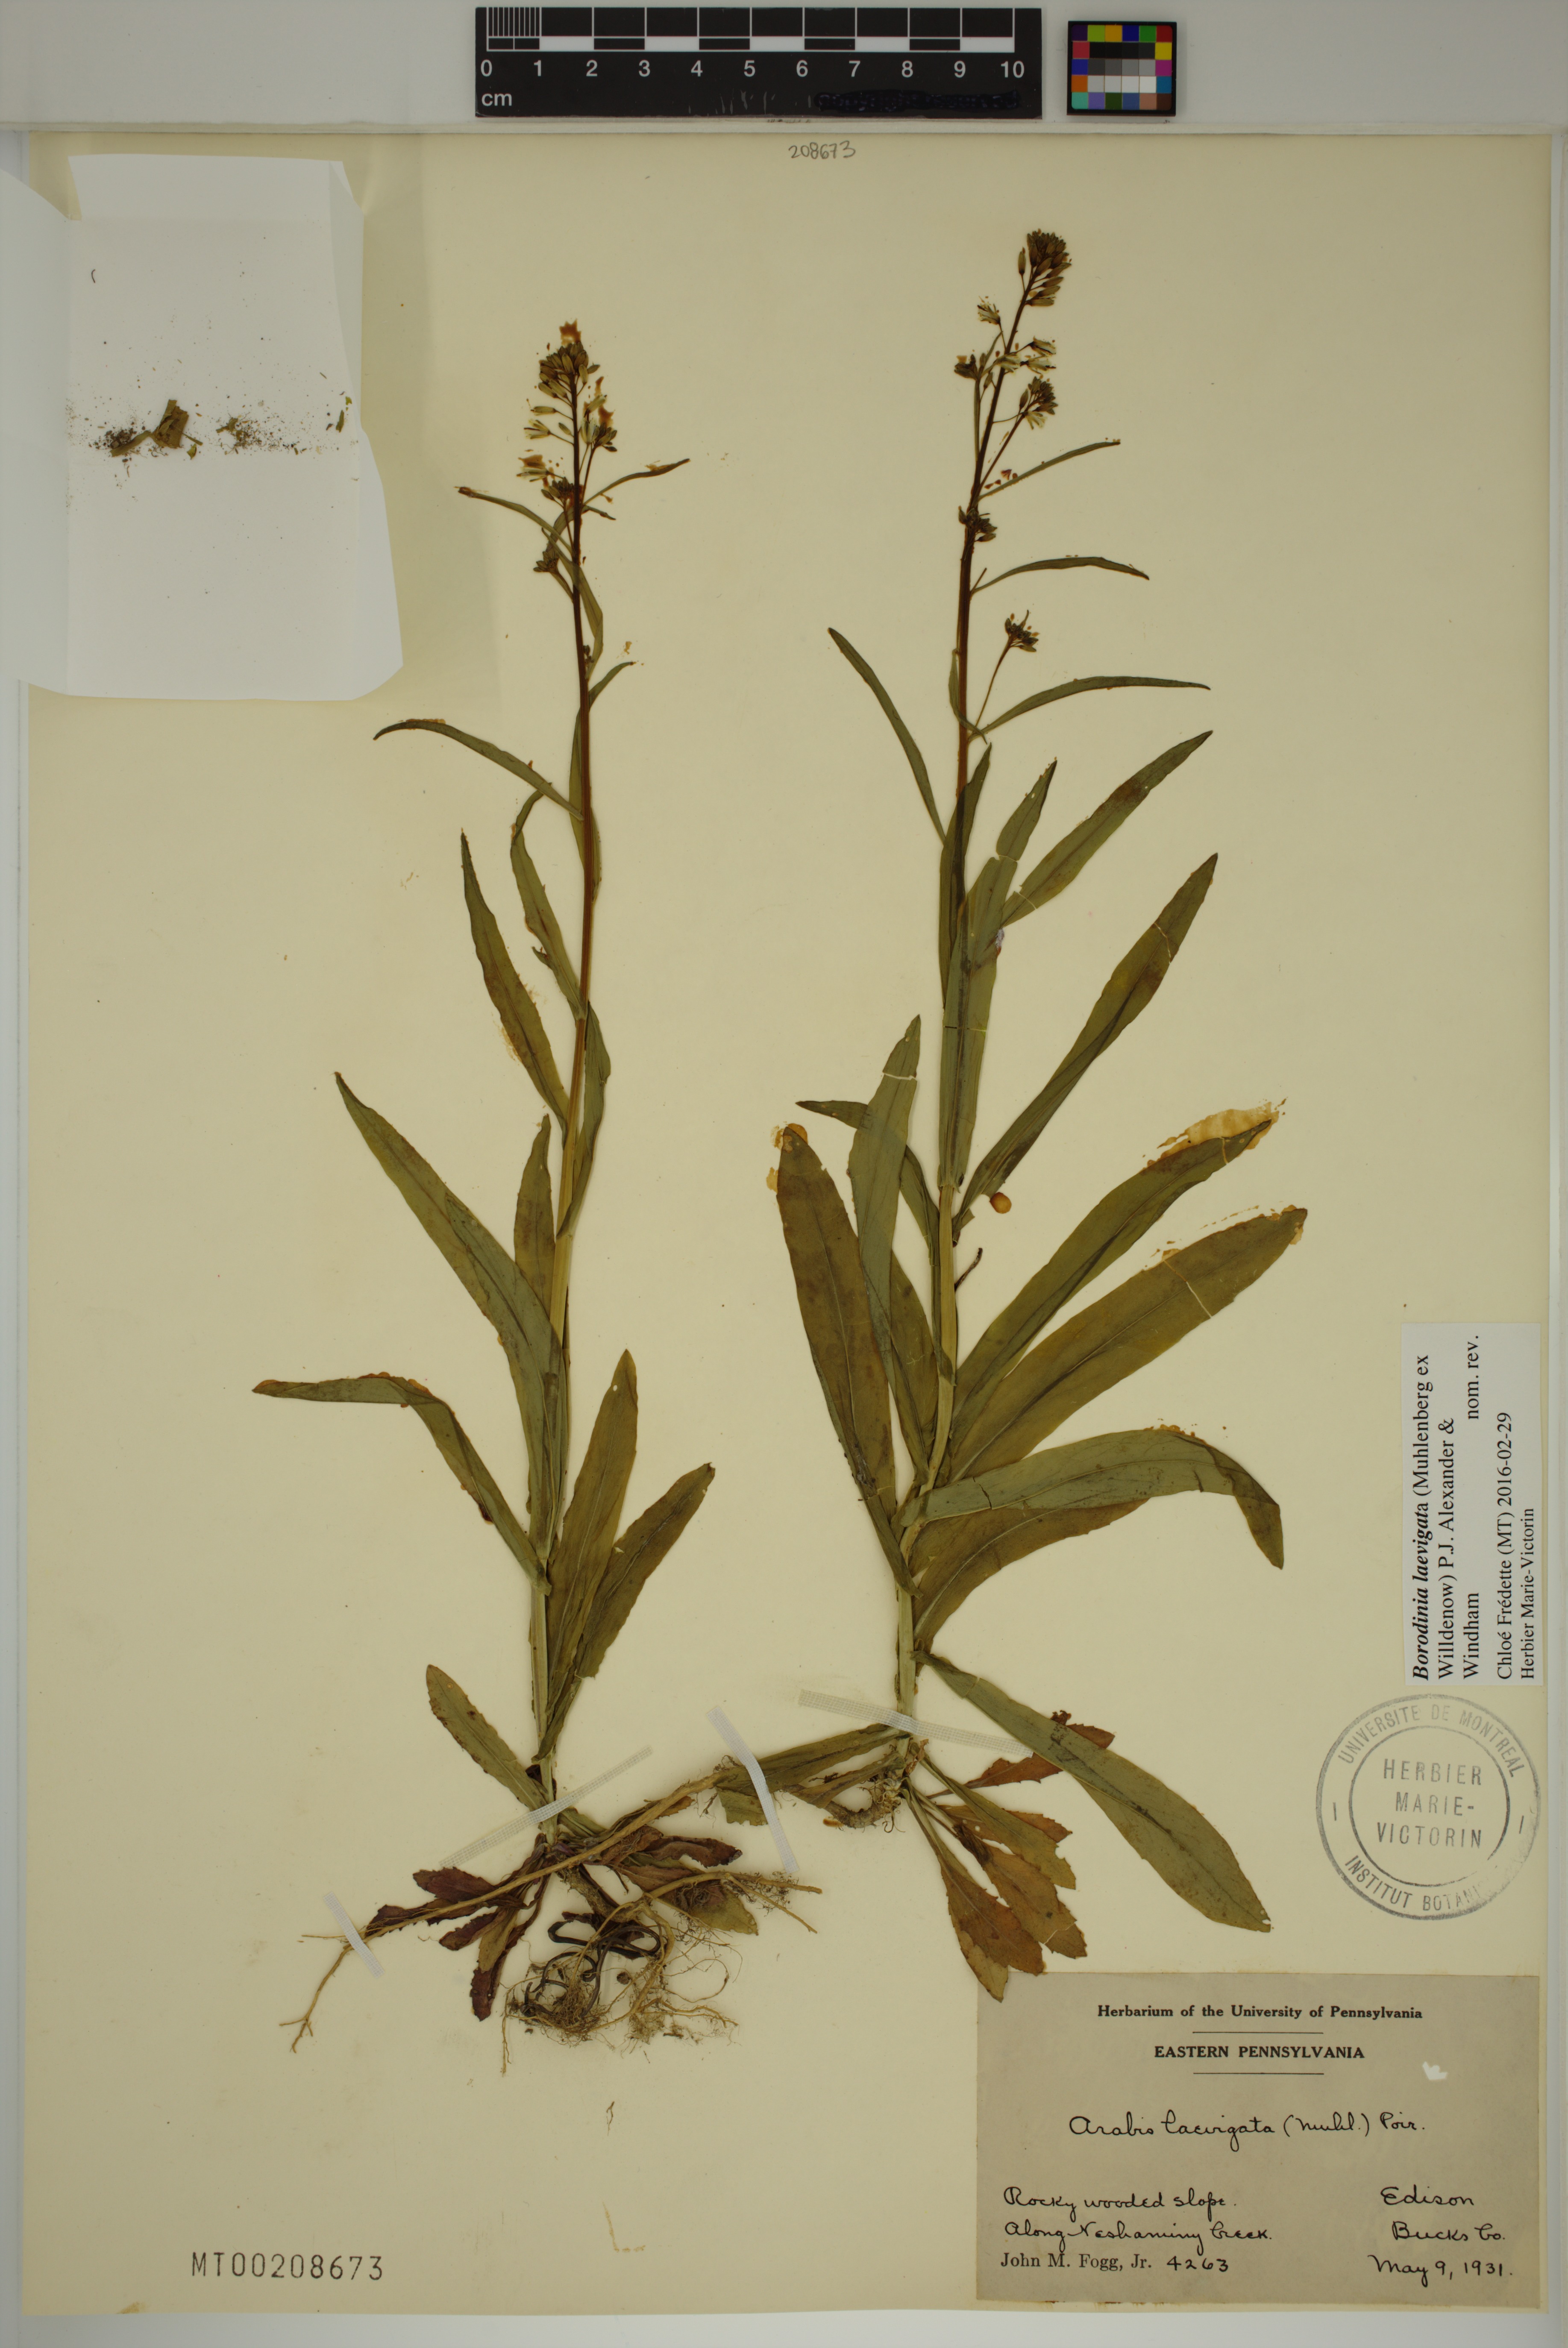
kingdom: Plantae
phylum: Tracheophyta
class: Magnoliopsida
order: Brassicales
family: Brassicaceae
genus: Borodinia
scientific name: Borodinia laevigata
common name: Smooth rockcress
